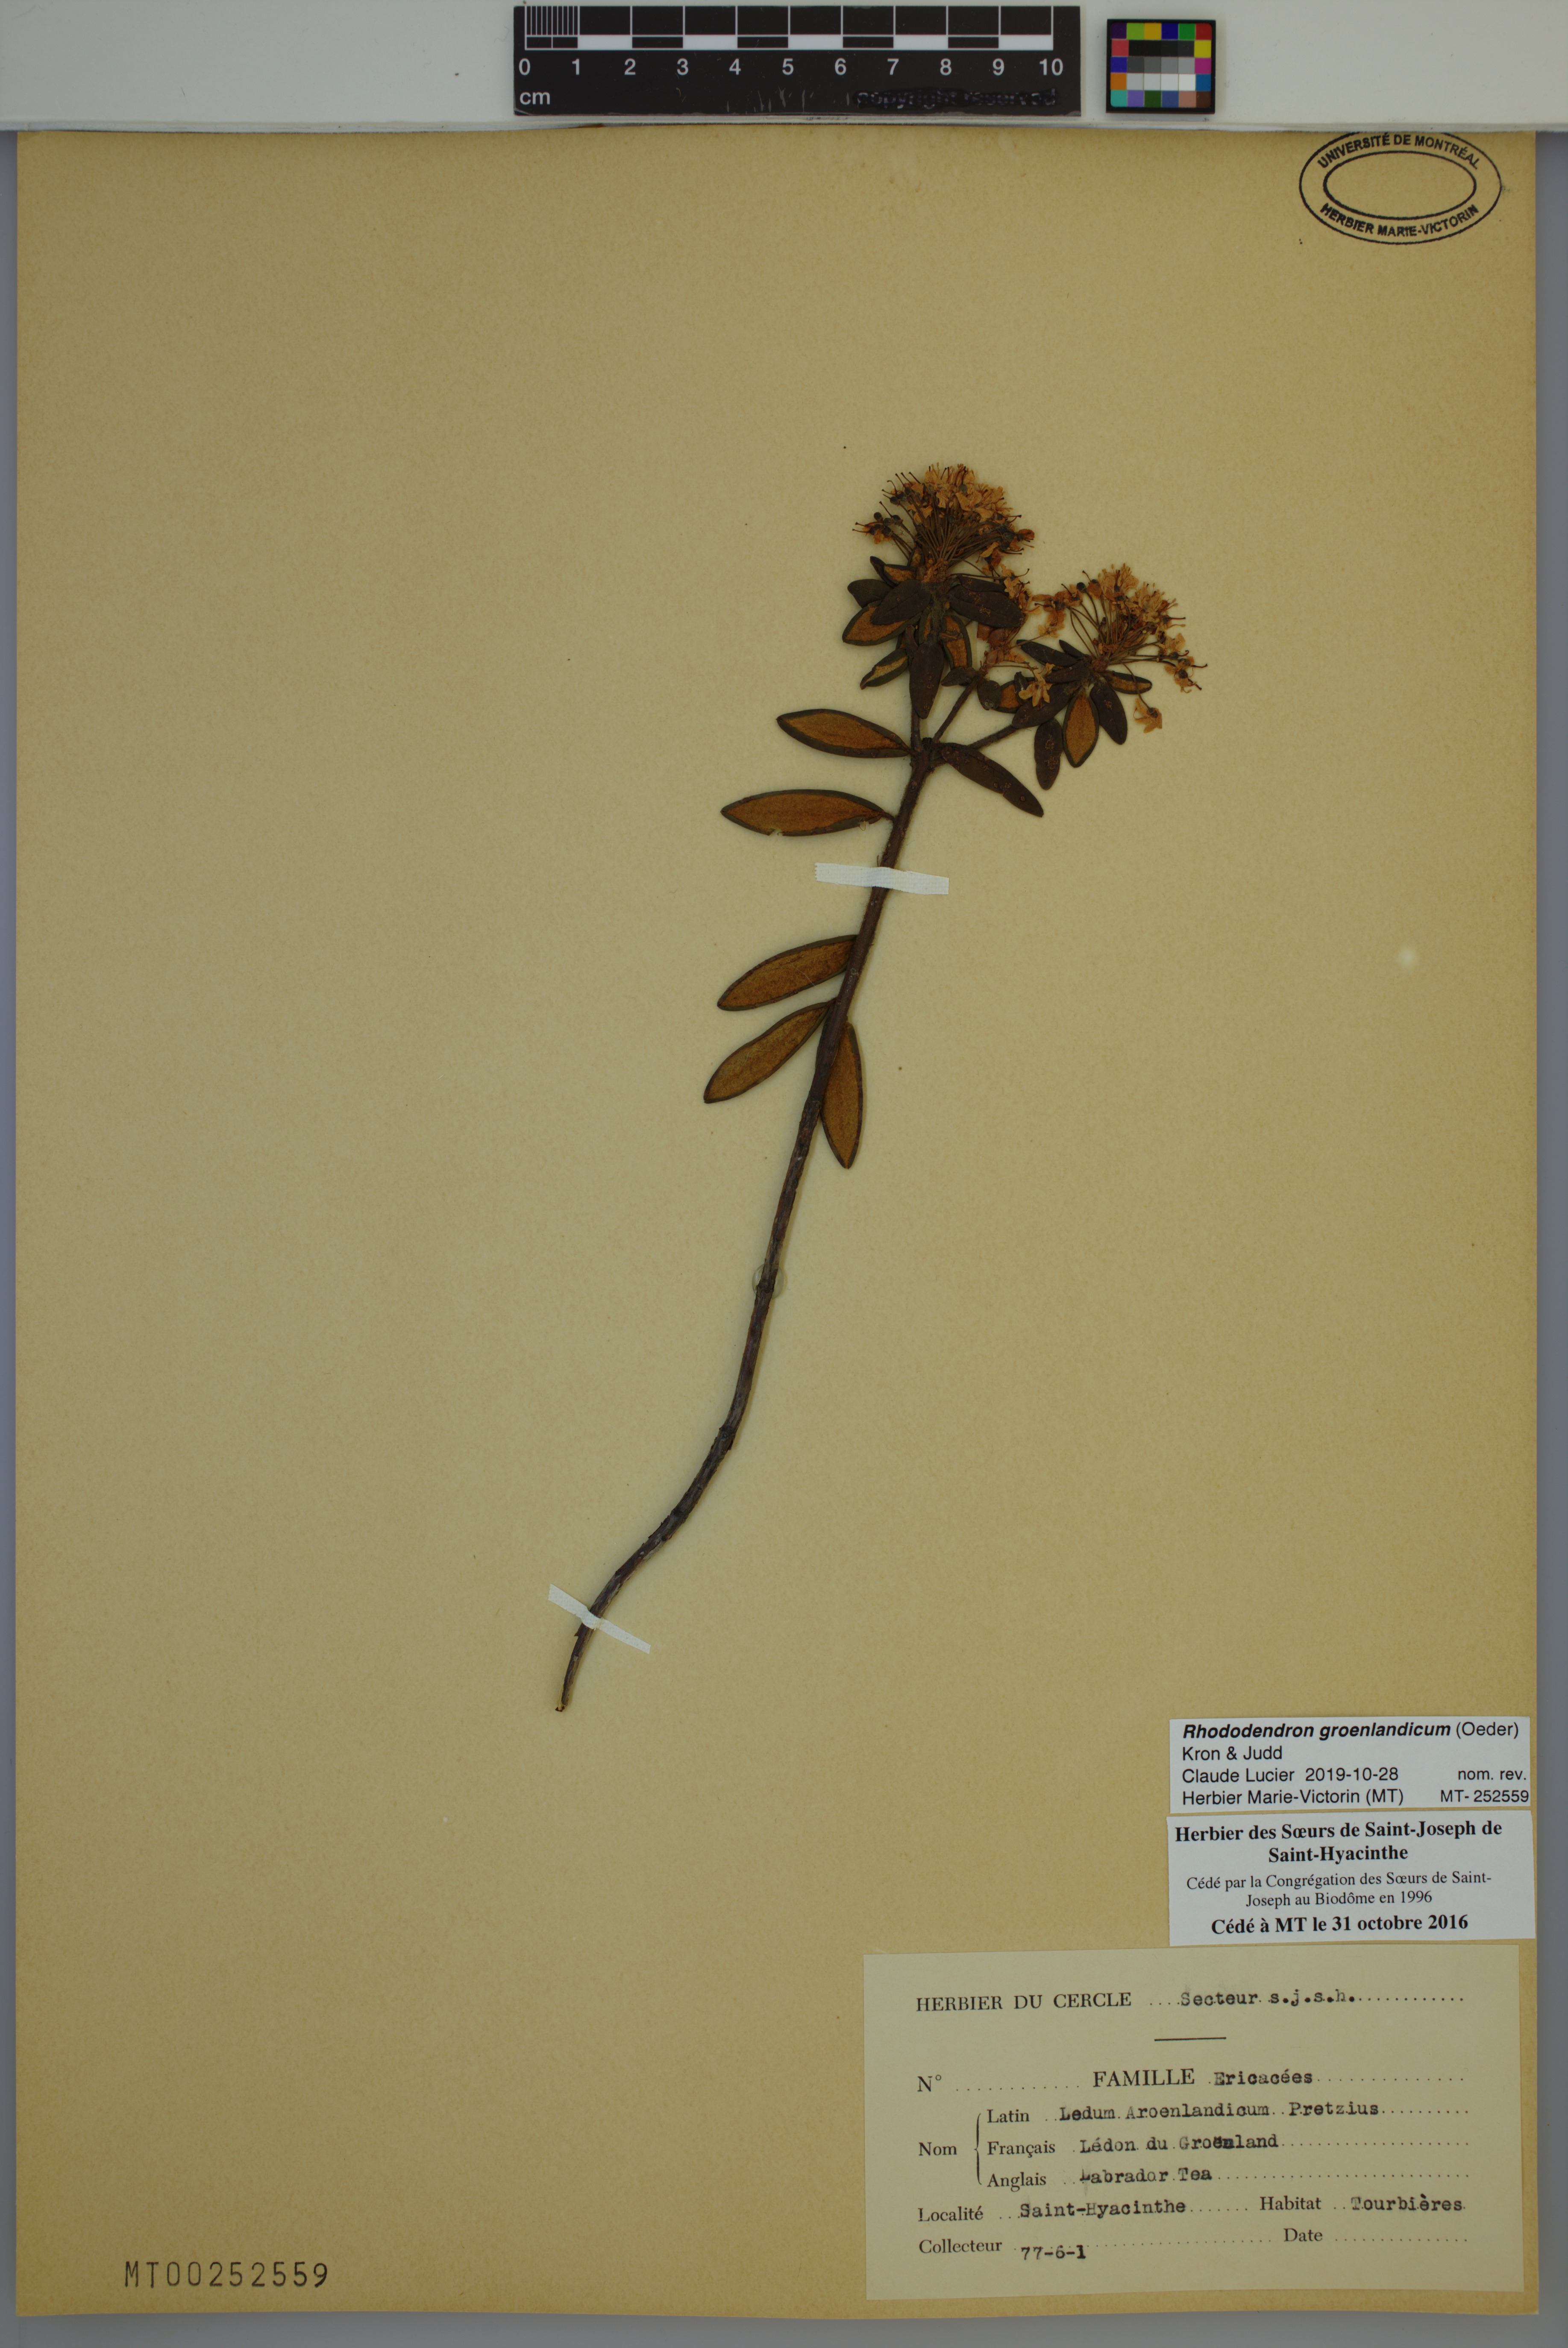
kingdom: Plantae
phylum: Tracheophyta
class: Magnoliopsida
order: Ericales
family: Ericaceae
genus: Rhododendron
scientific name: Rhododendron groenlandicum
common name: Bog labrador tea
